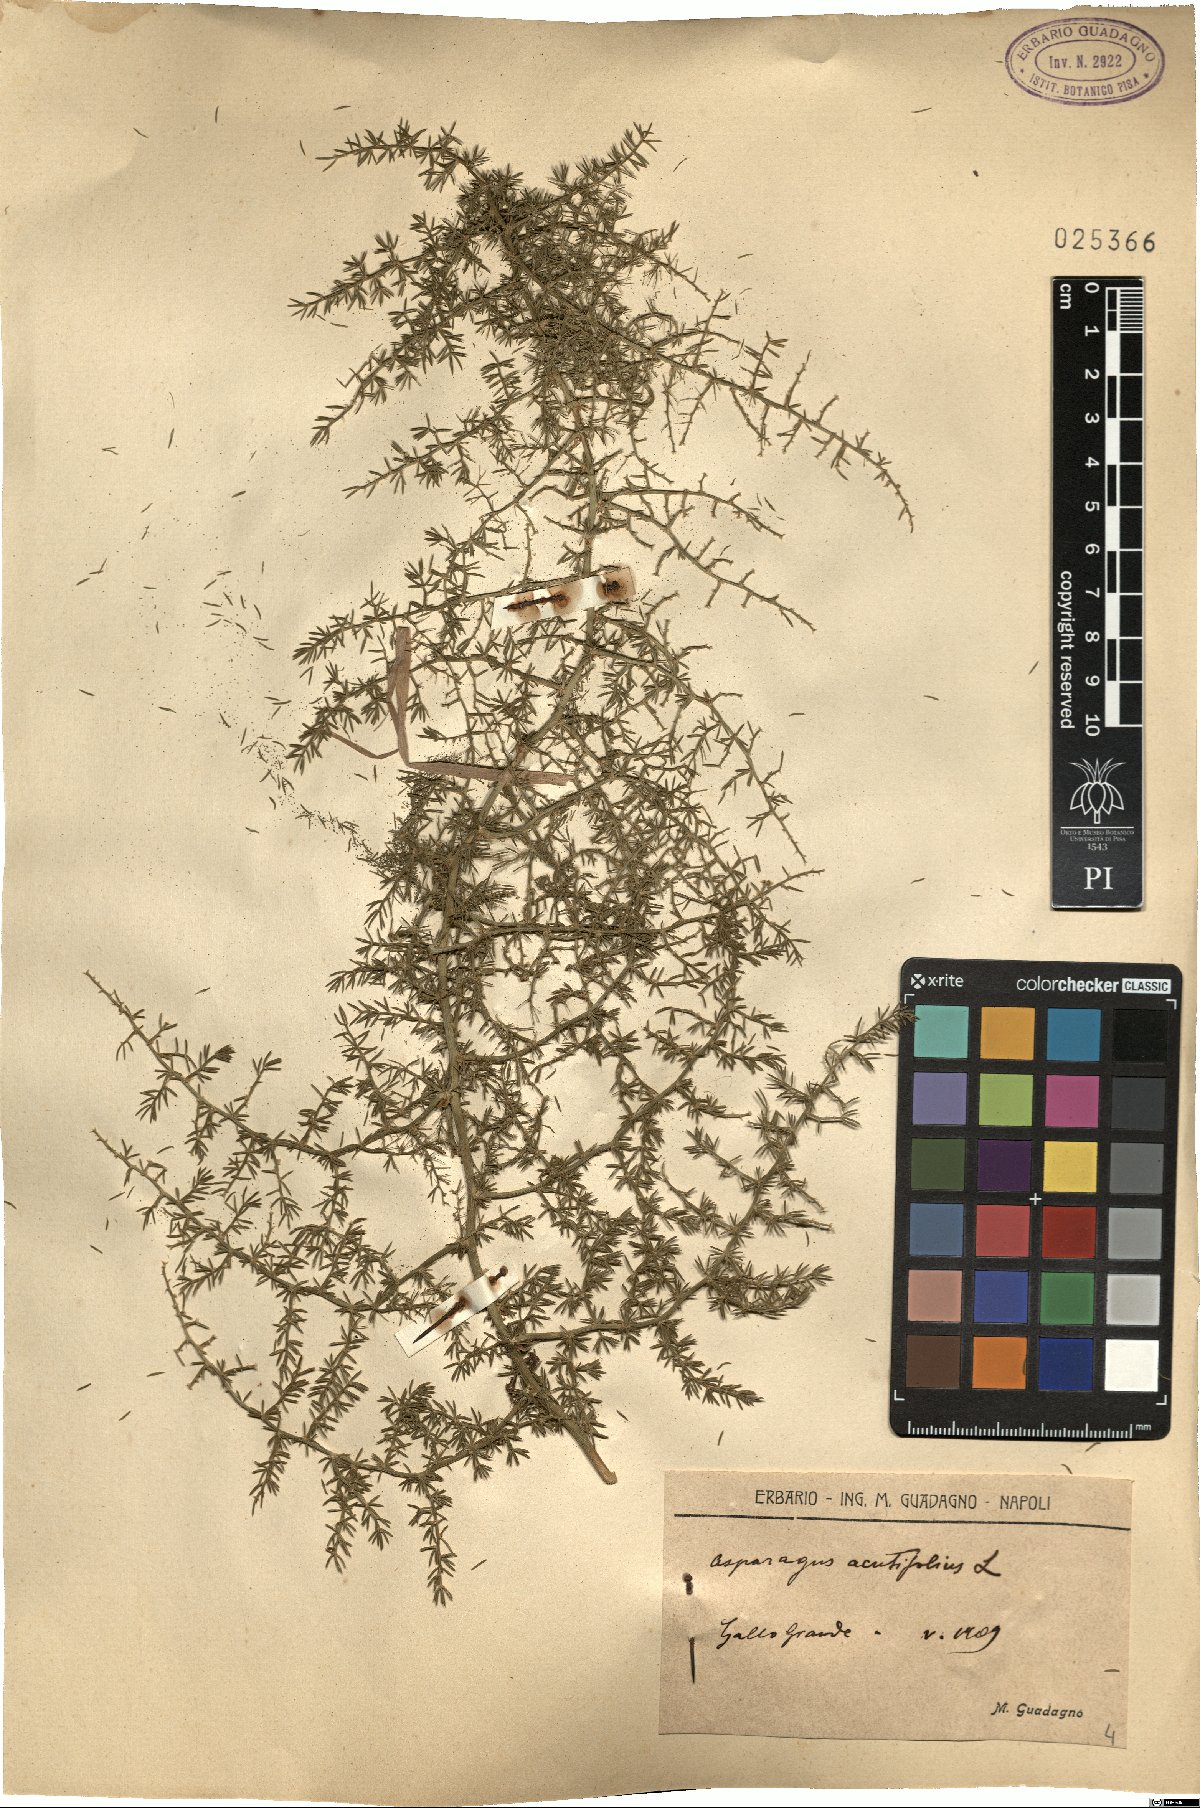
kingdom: Plantae
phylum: Tracheophyta
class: Liliopsida
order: Asparagales
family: Asparagaceae
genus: Asparagus
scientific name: Asparagus acutifolius
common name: Wild asparagus
